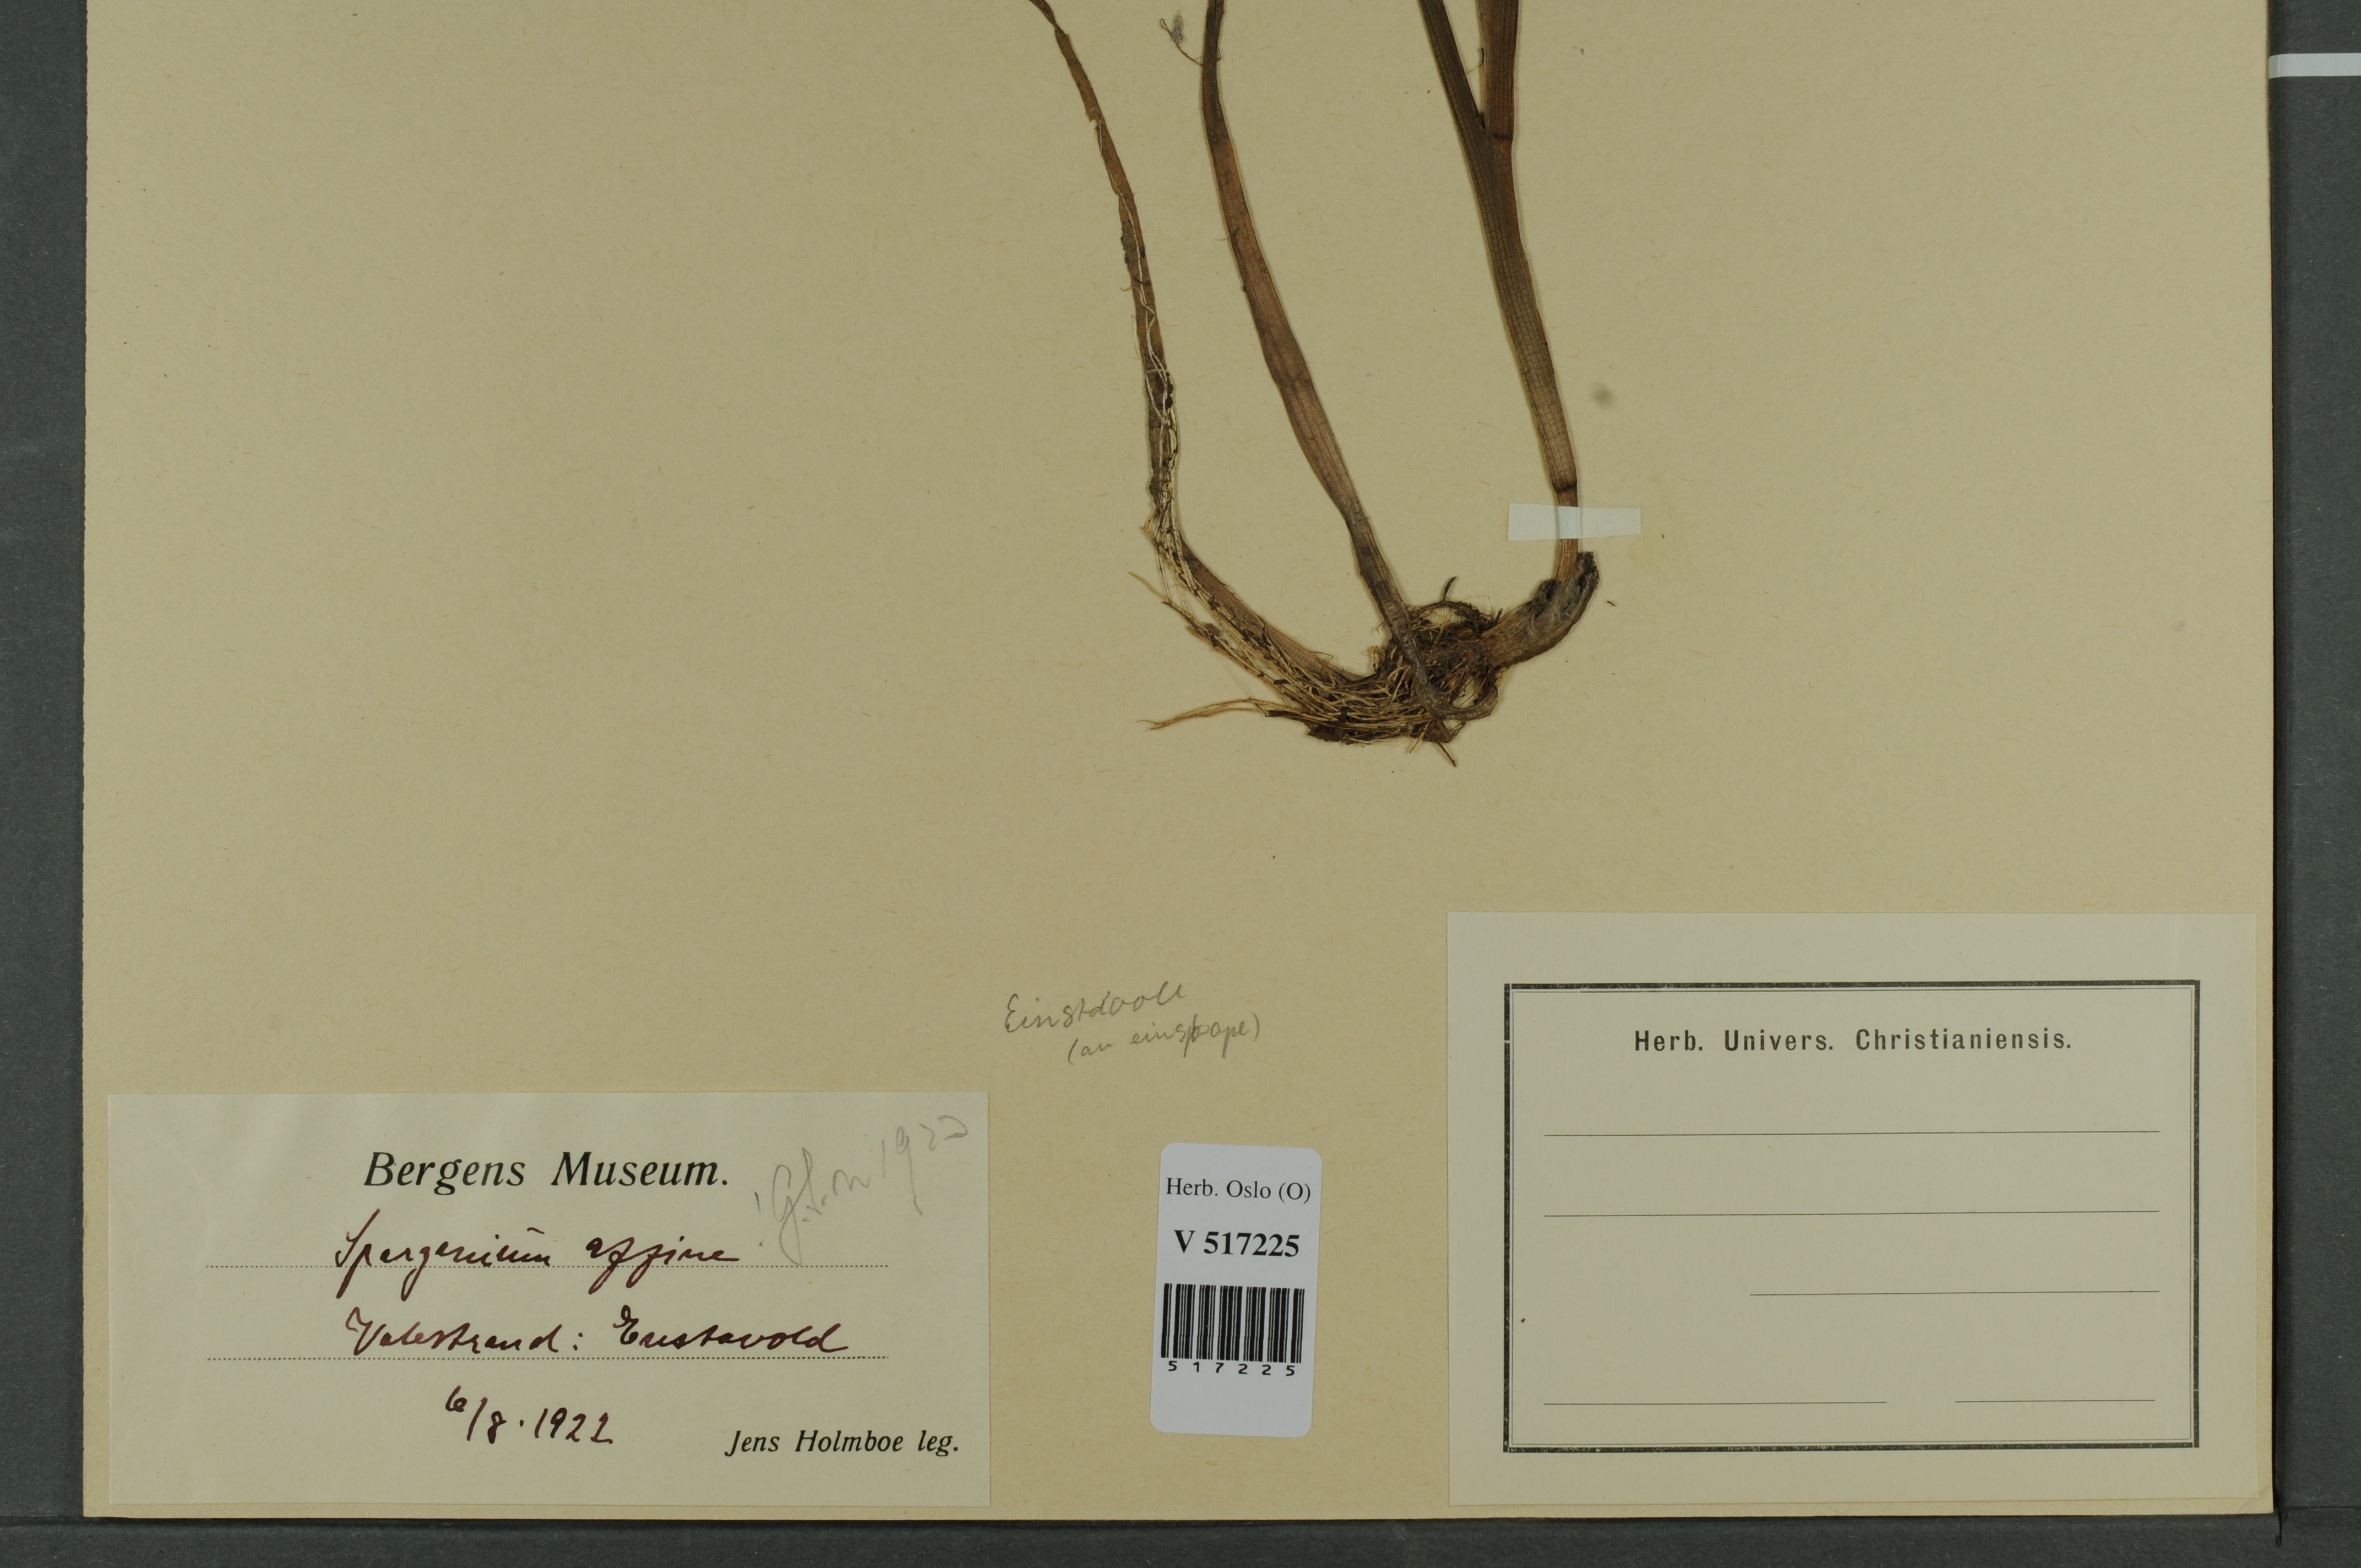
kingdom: Plantae
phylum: Tracheophyta
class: Liliopsida
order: Poales
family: Typhaceae
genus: Sparganium
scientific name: Sparganium angustifolium
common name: Floating bur-reed
